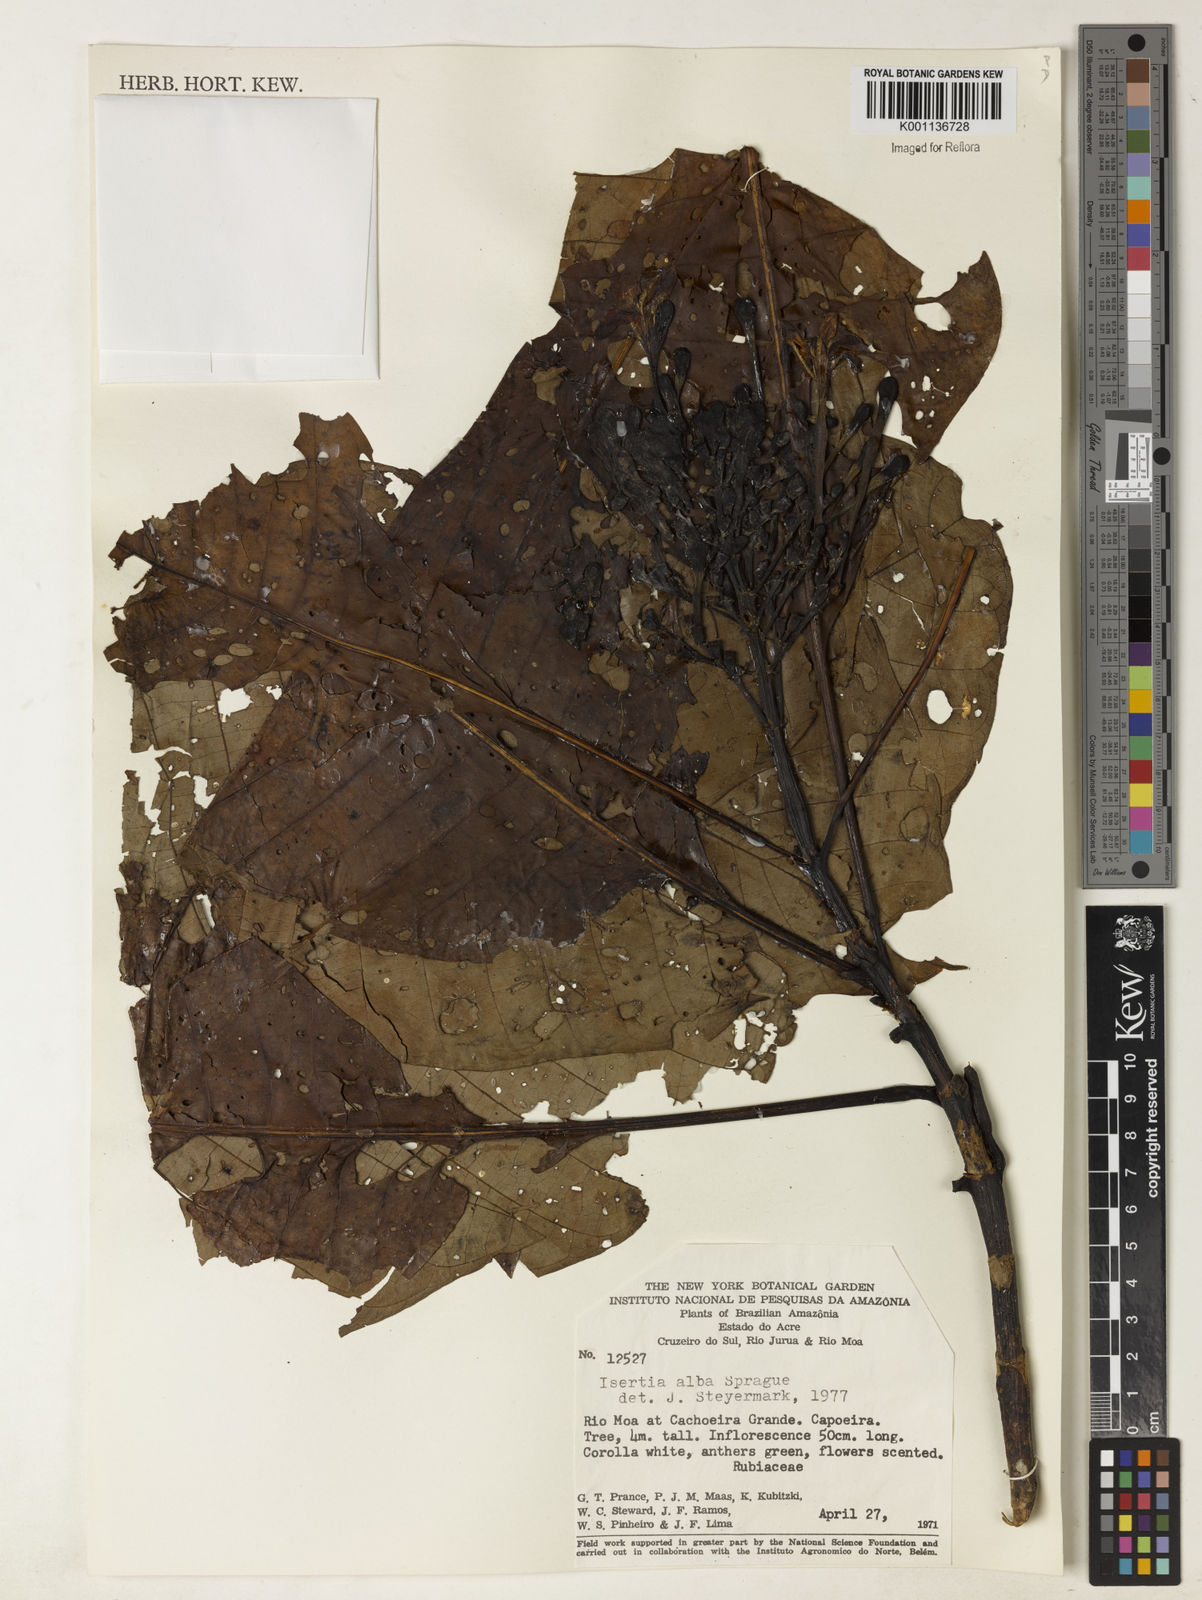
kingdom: Plantae
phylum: Tracheophyta
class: Magnoliopsida
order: Gentianales
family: Rubiaceae
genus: Isertia
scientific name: Isertia laevis
